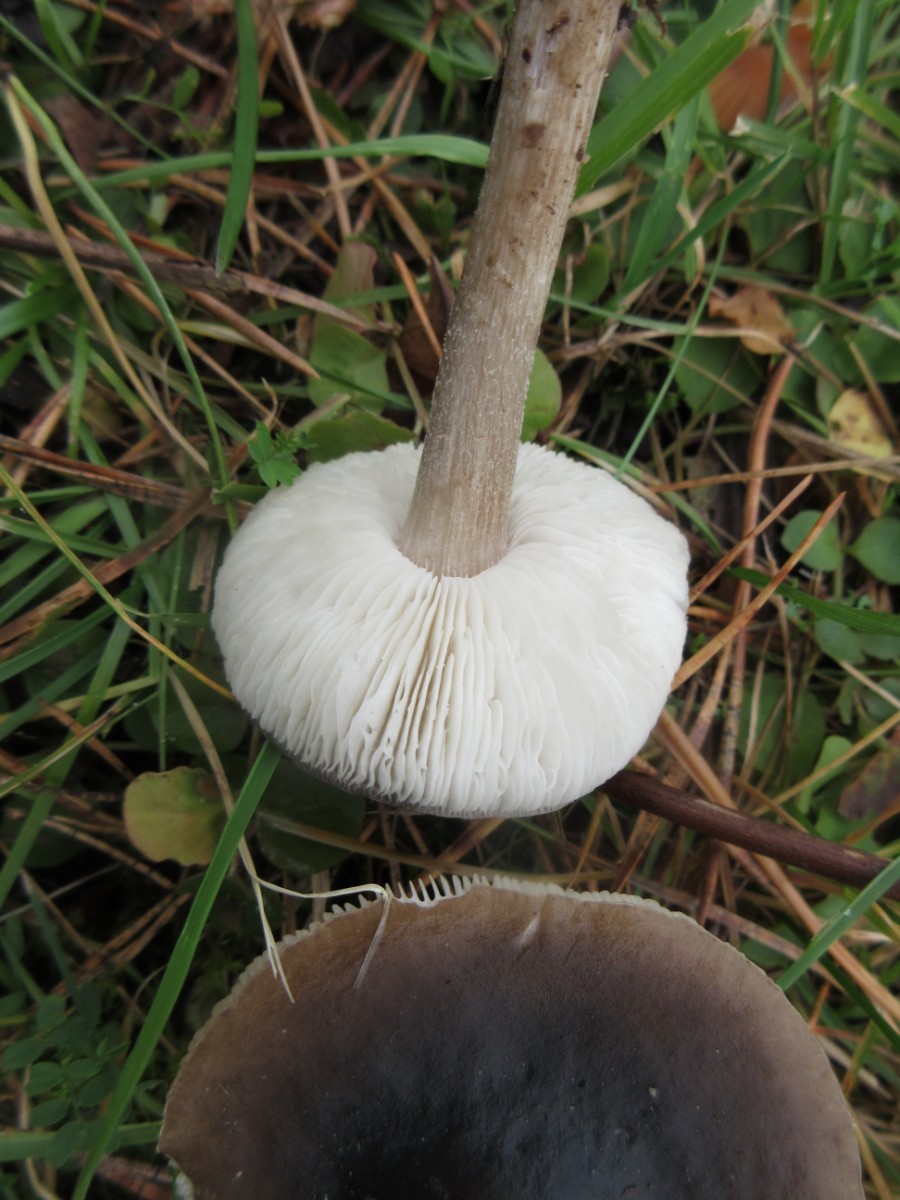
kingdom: Fungi
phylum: Basidiomycota
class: Agaricomycetes
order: Agaricales
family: Tricholomataceae
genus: Melanoleuca
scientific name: Melanoleuca polioleuca
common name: hvidbladet munkehat
